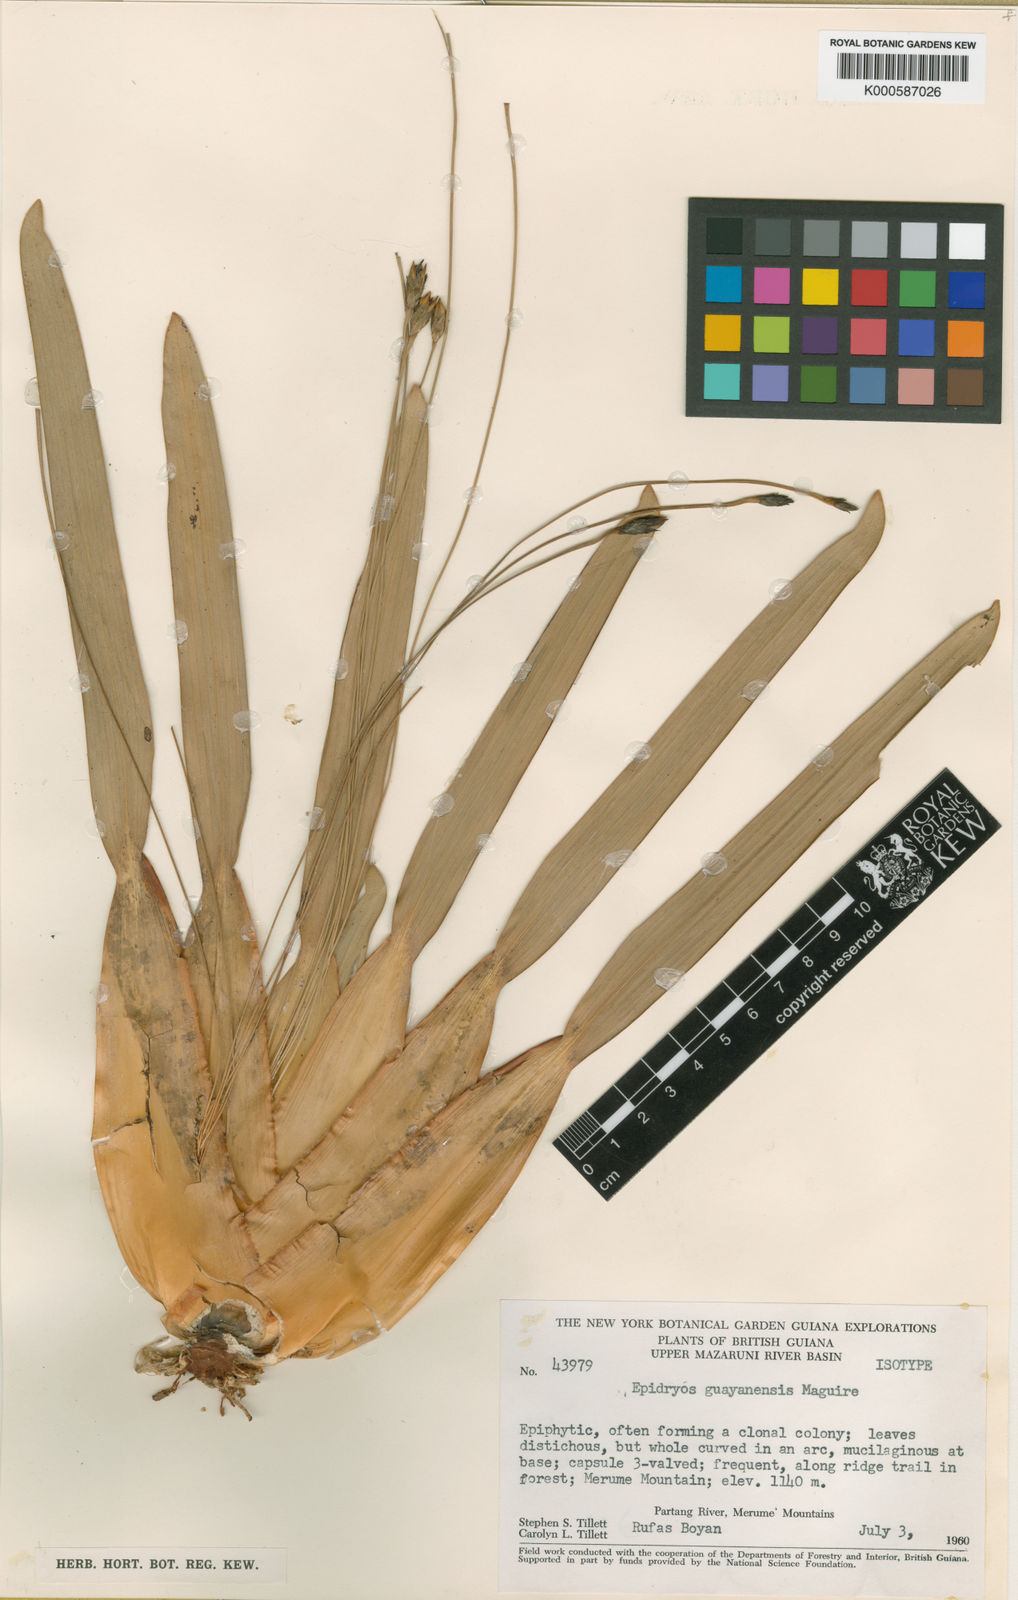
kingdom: Plantae
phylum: Tracheophyta
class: Liliopsida
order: Poales
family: Rapateaceae
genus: Epidryos
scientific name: Epidryos guayanensis
